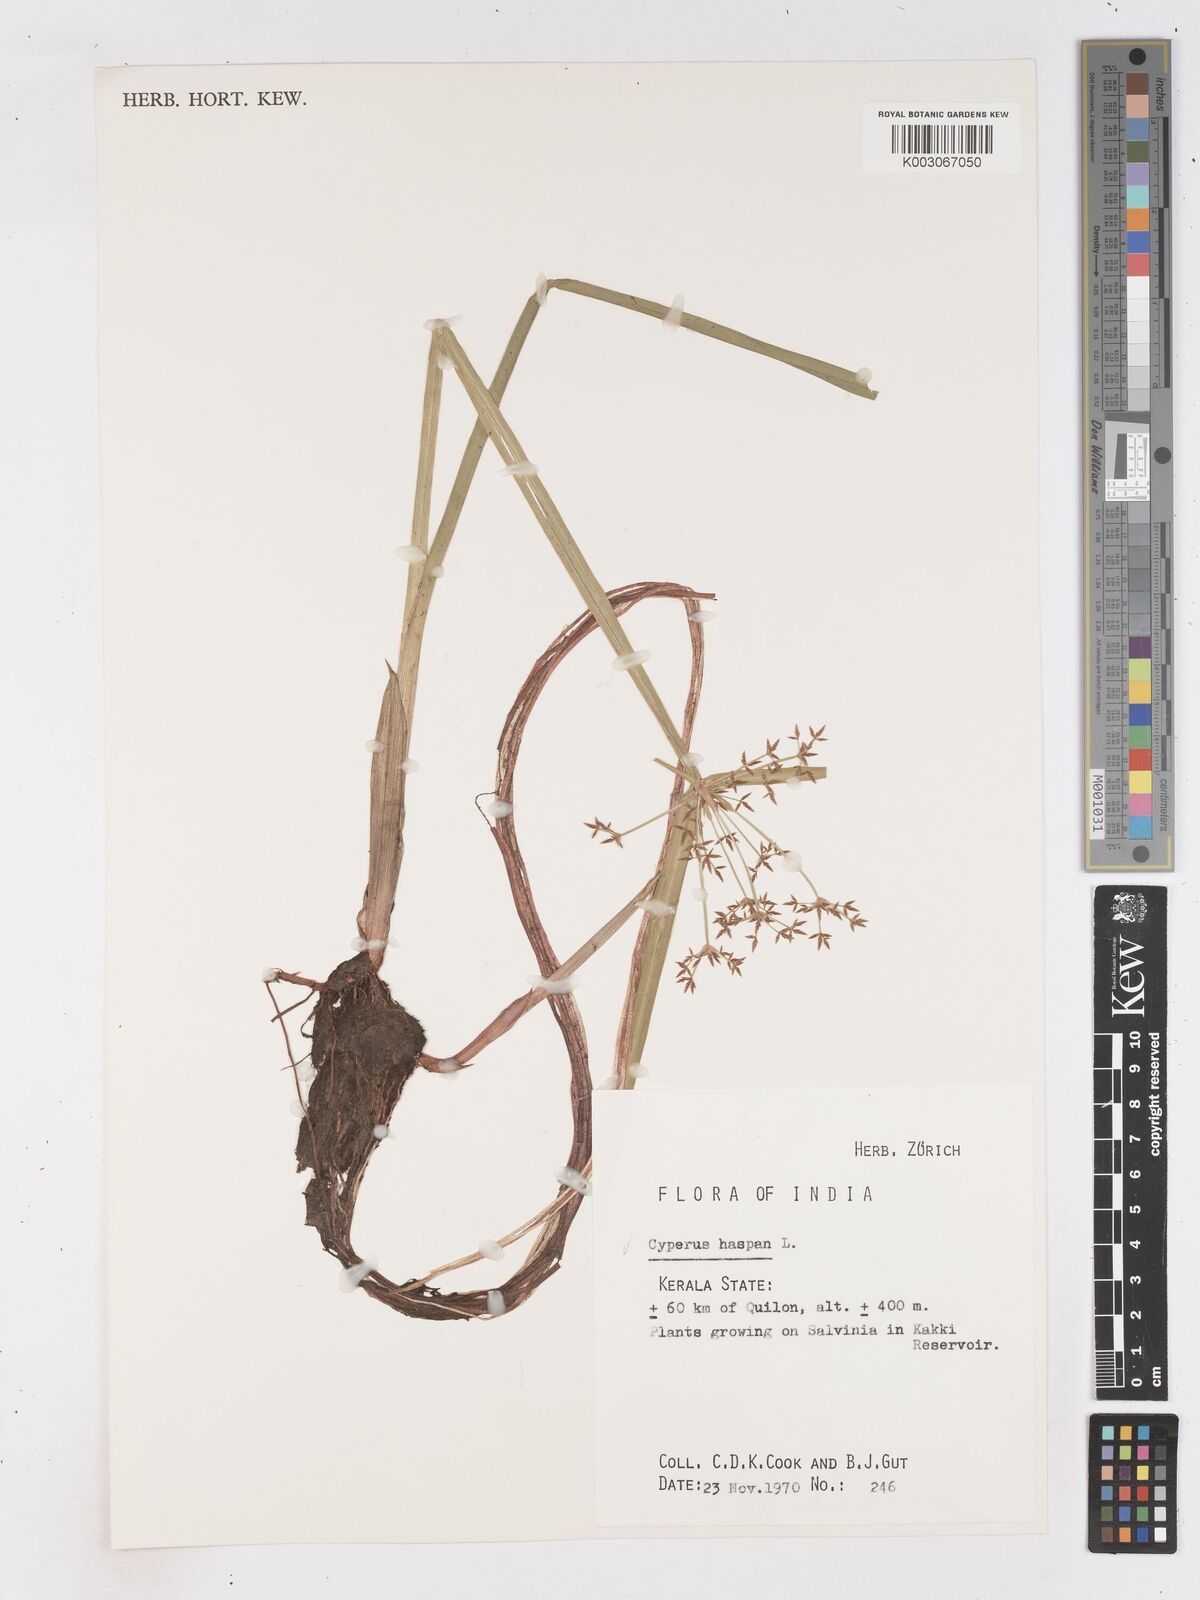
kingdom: Plantae
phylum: Tracheophyta
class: Liliopsida
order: Poales
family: Cyperaceae
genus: Cyperus
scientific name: Cyperus haspan
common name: Haspan flatsedge
